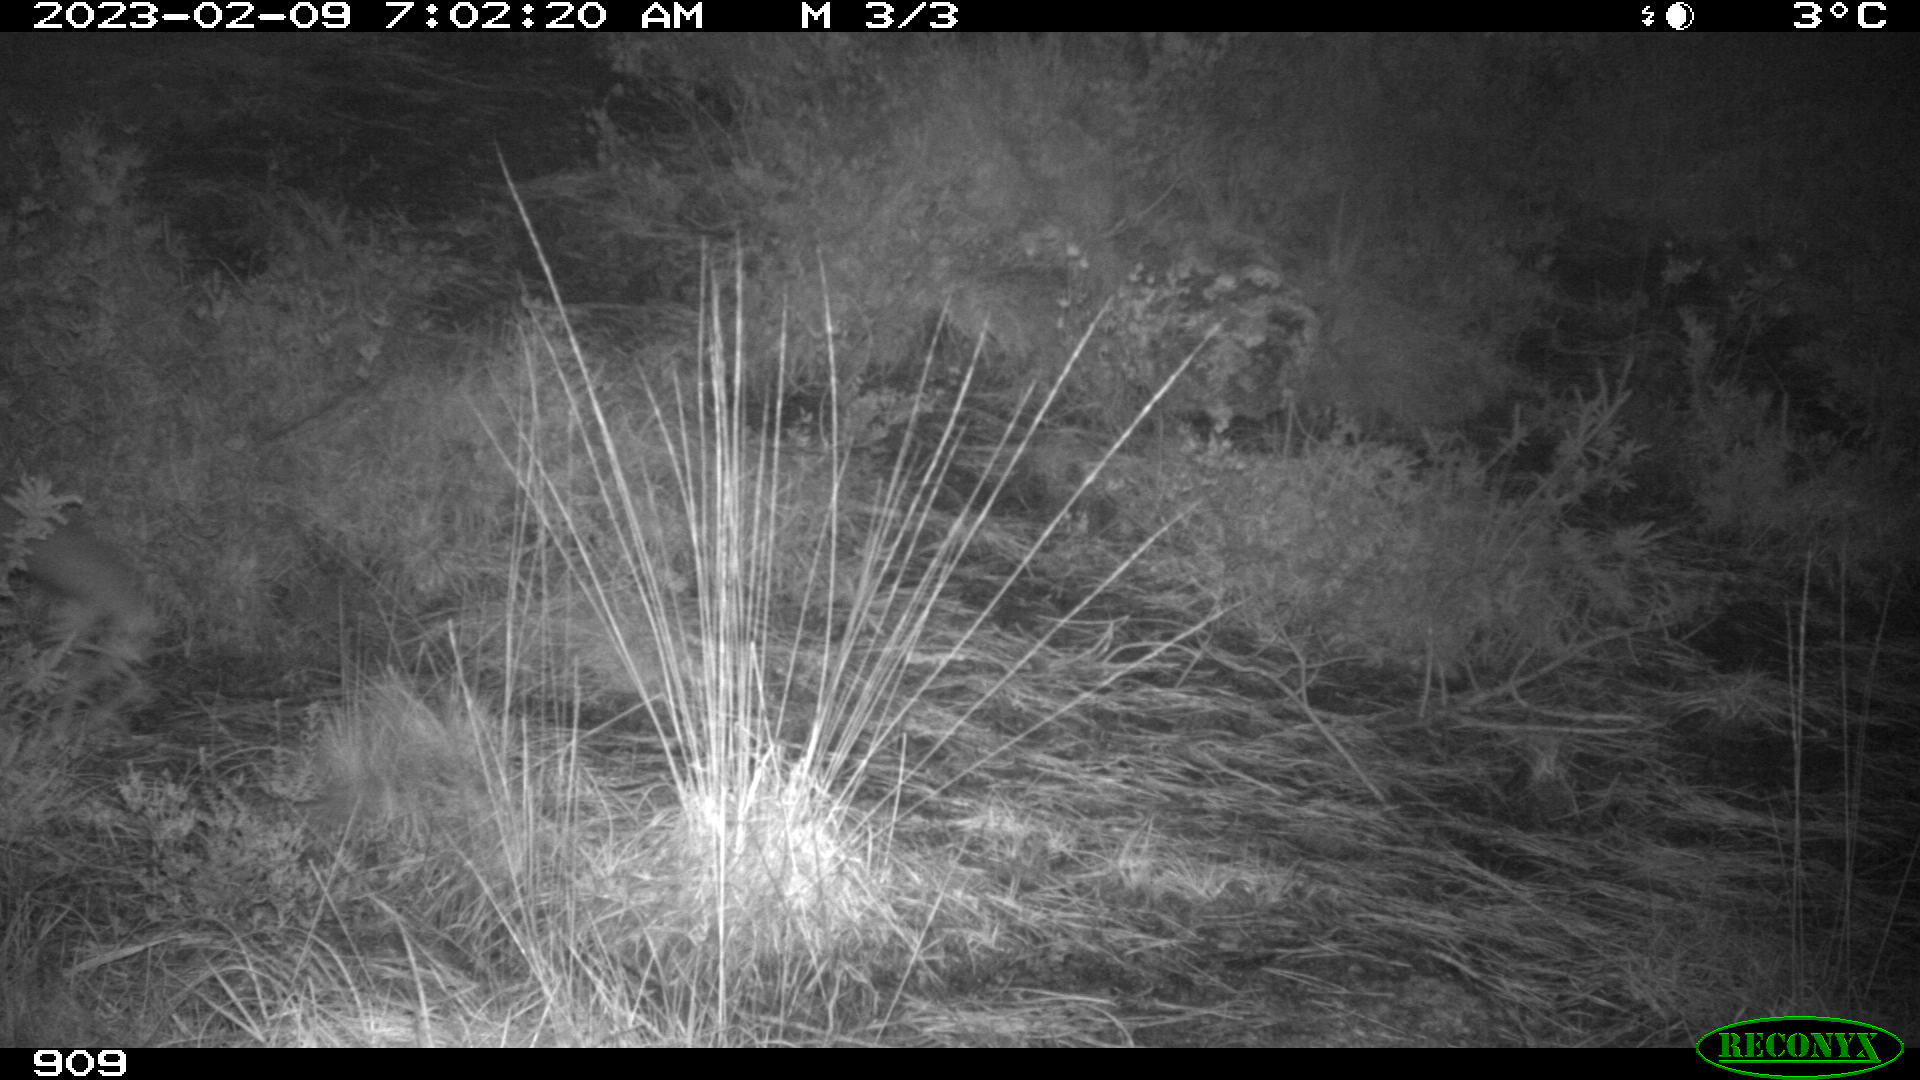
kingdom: Animalia
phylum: Chordata
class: Mammalia
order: Carnivora
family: Canidae
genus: Vulpes
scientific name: Vulpes vulpes
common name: Red fox
